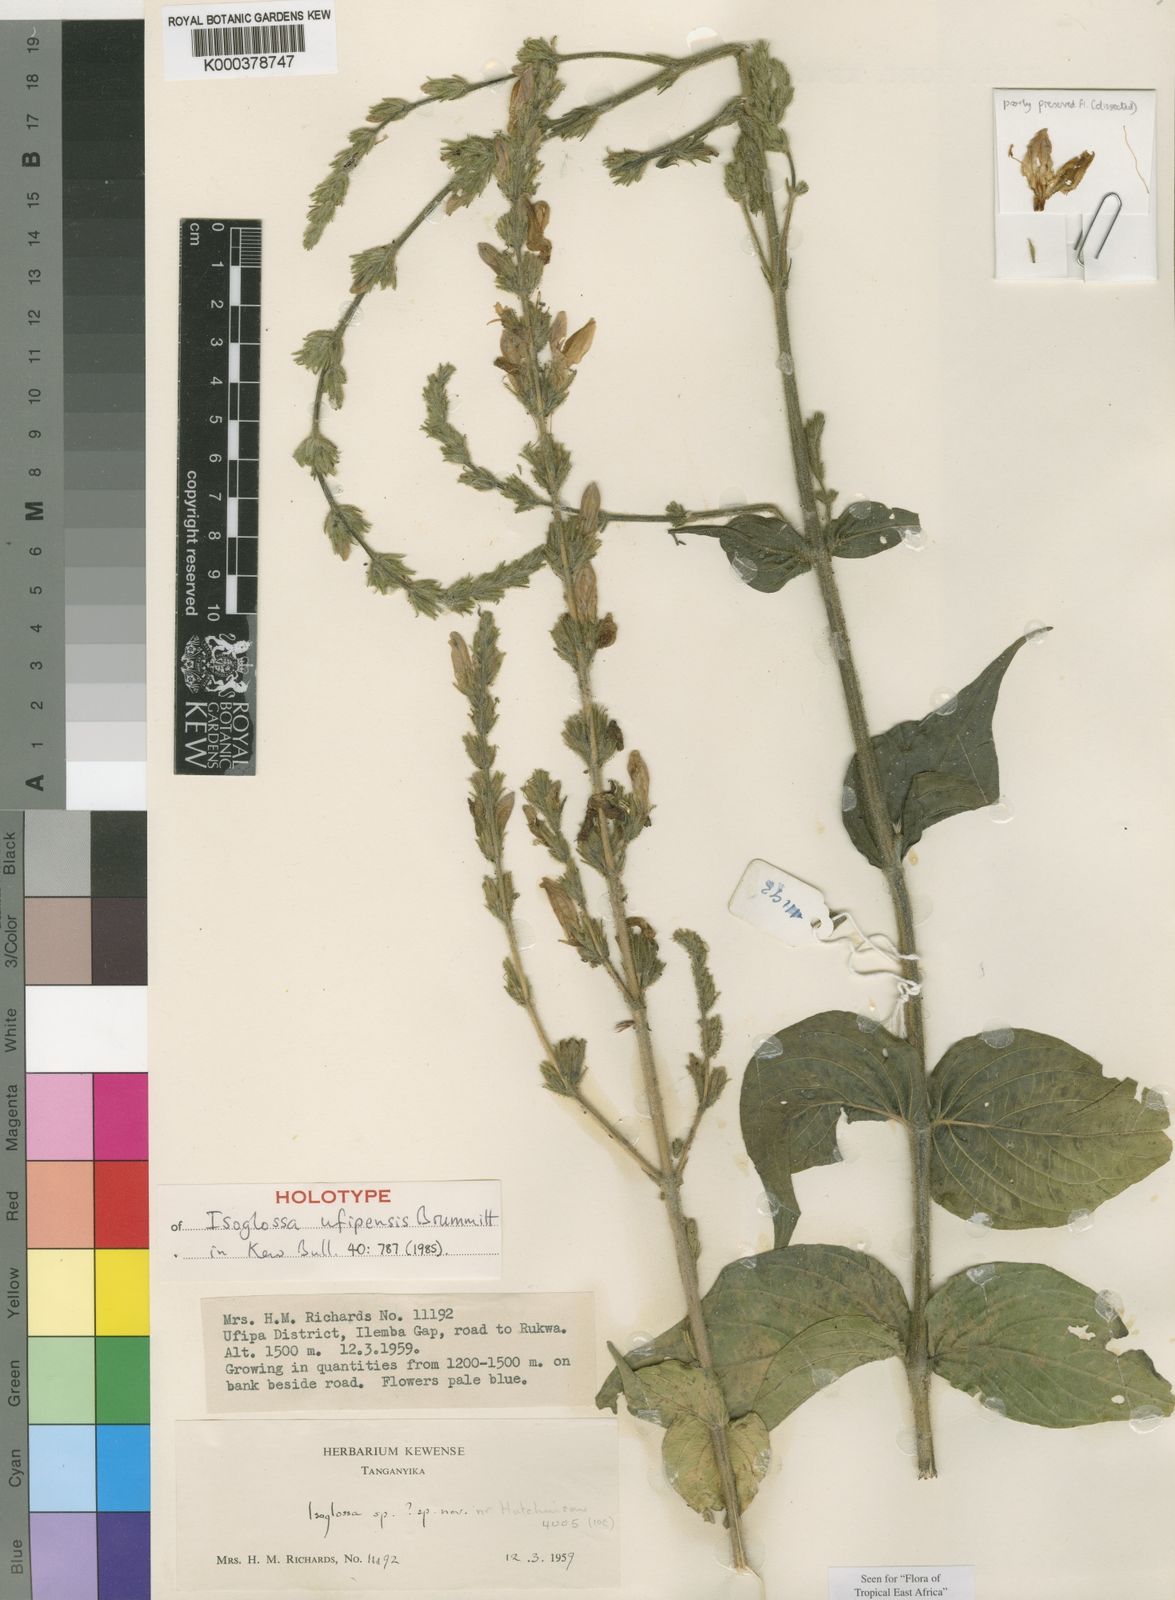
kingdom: Plantae
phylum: Tracheophyta
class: Magnoliopsida
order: Lamiales
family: Acanthaceae
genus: Isoglossa
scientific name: Isoglossa ufipensis
